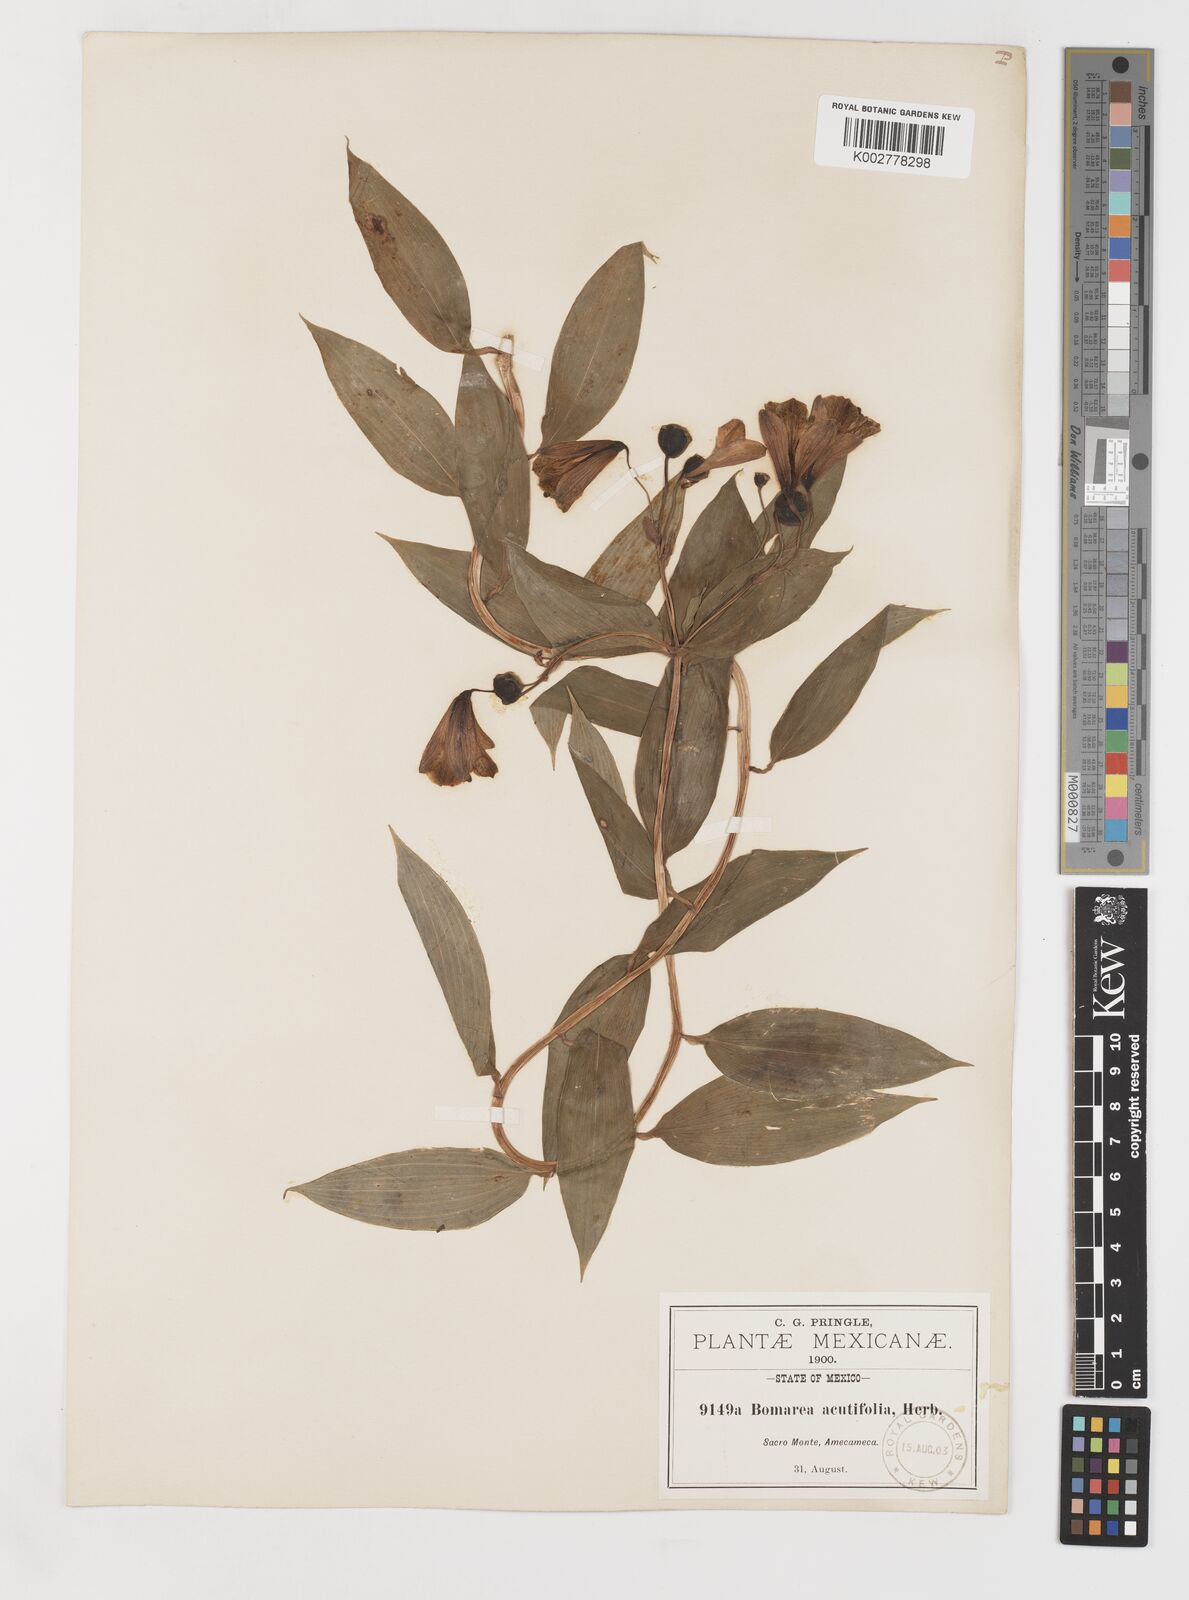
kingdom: Plantae
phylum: Tracheophyta
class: Liliopsida
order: Liliales
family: Alstroemeriaceae
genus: Bomarea
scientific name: Bomarea edulis
